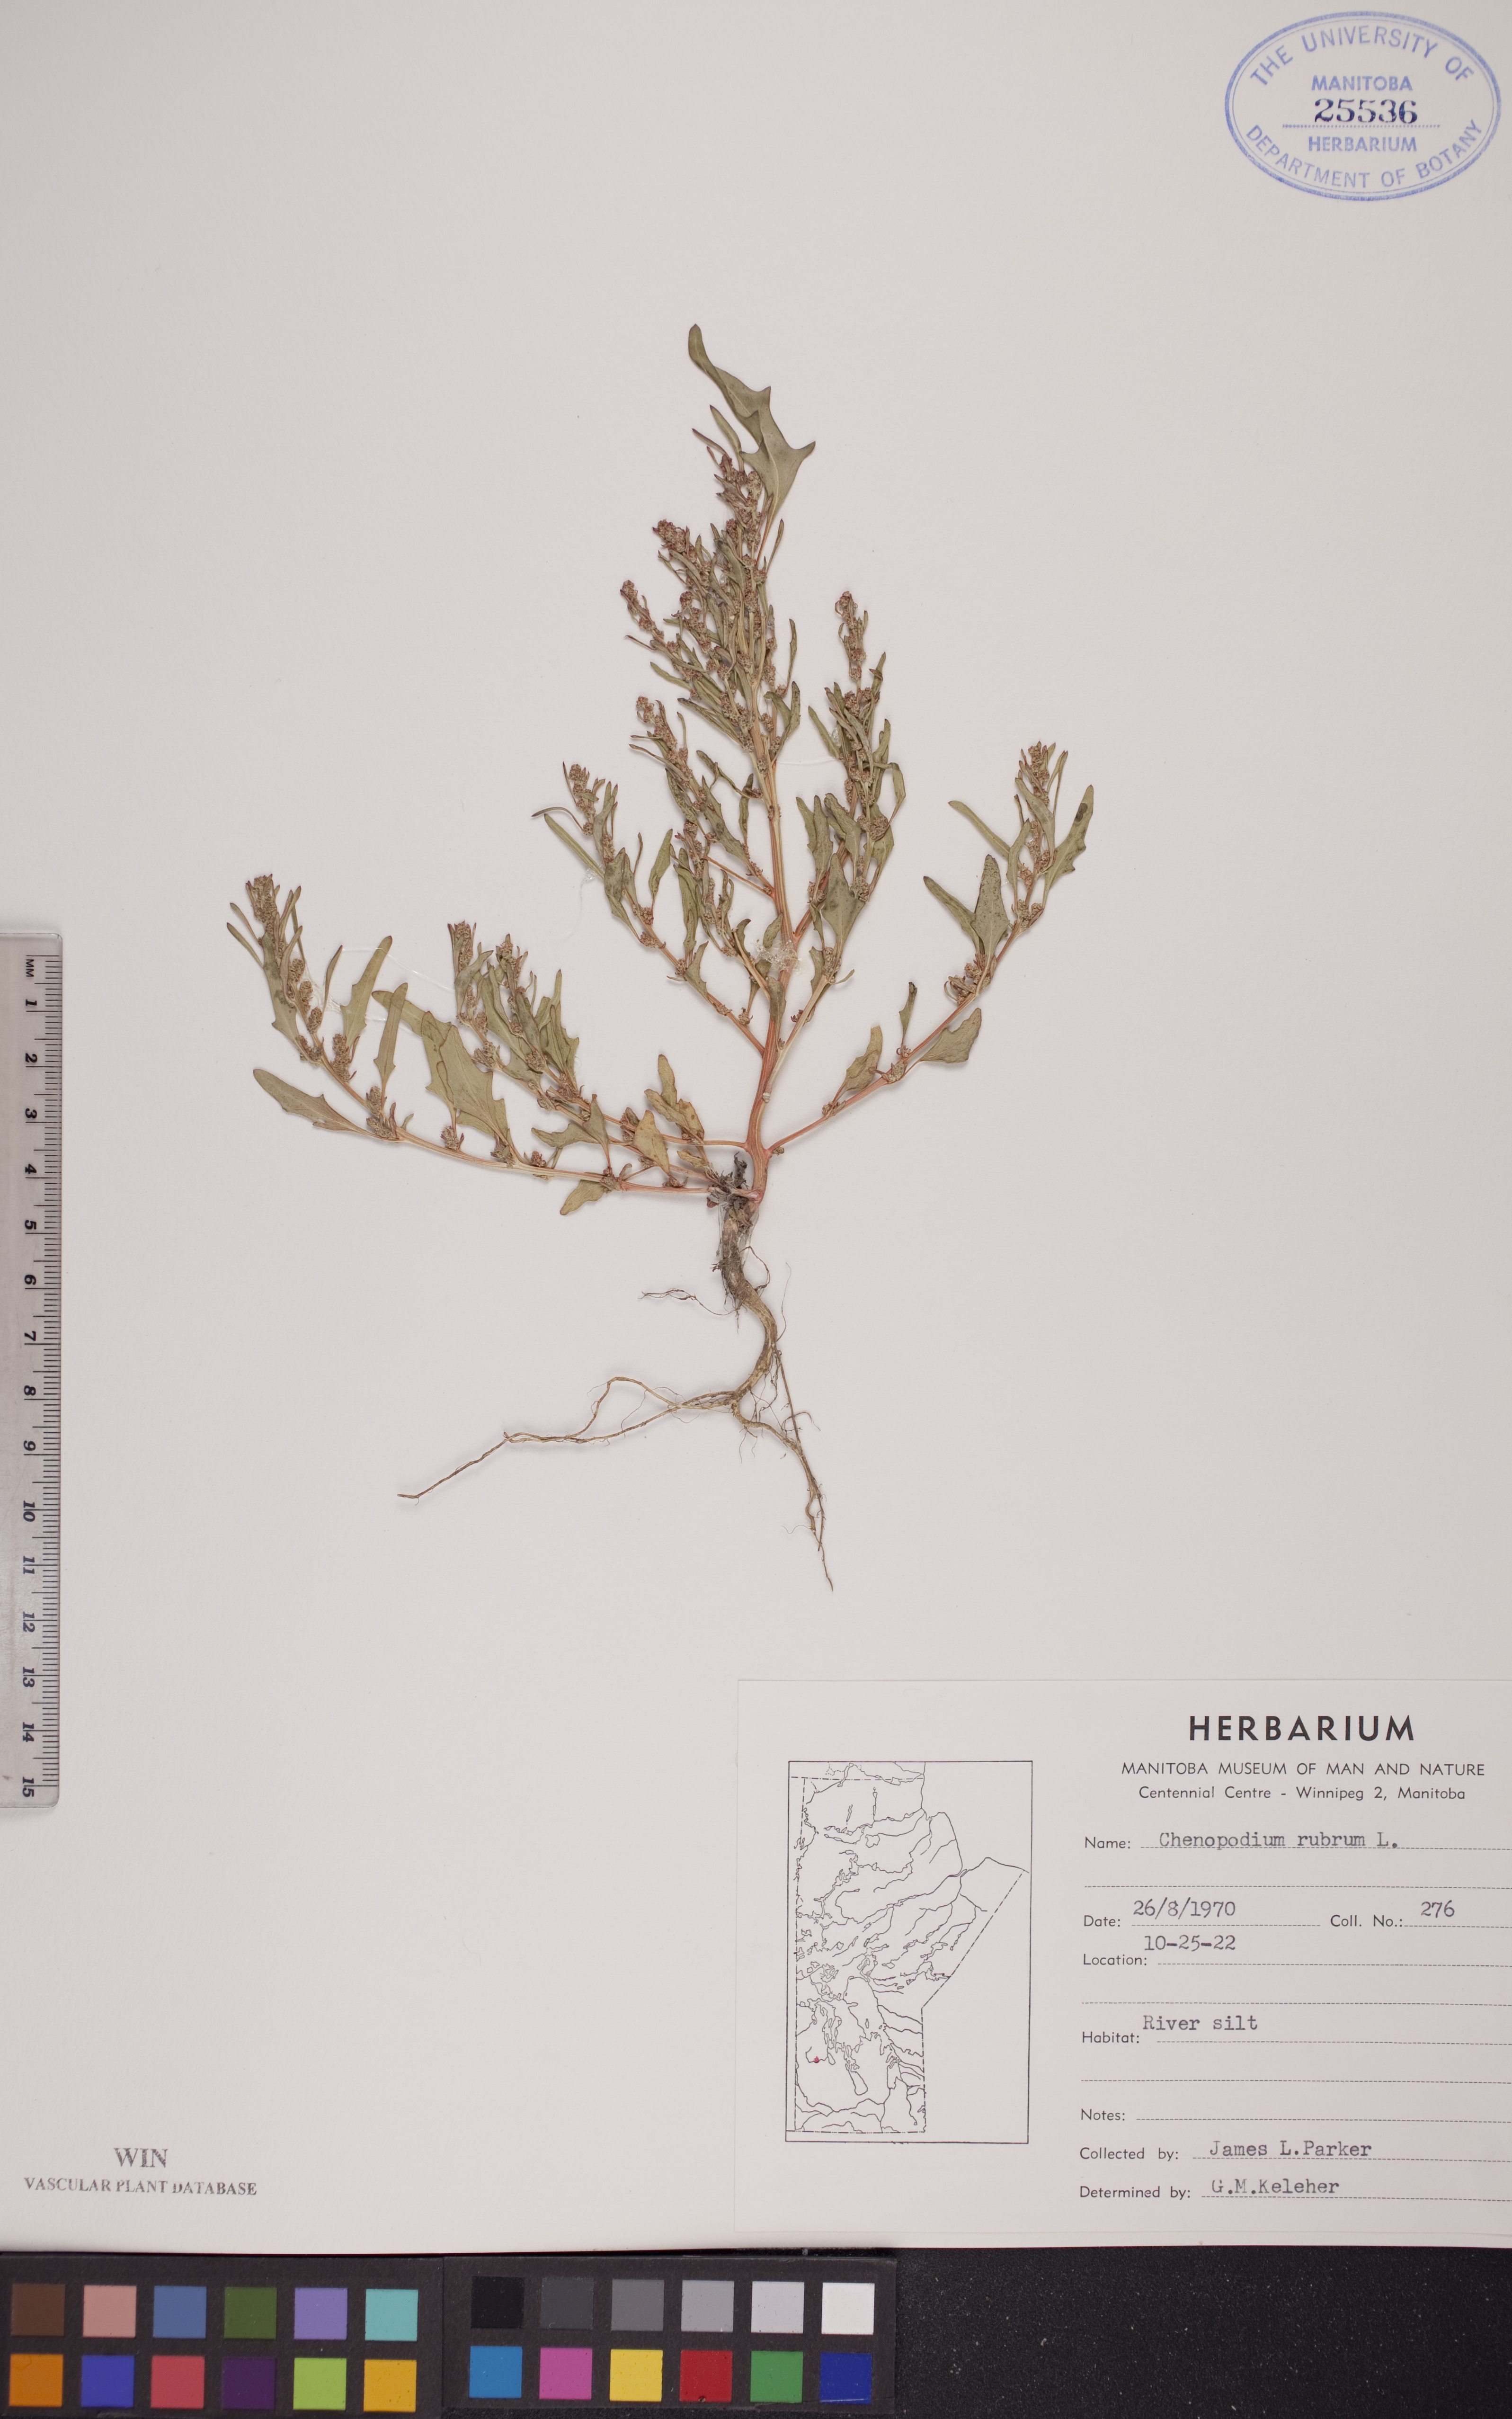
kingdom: Plantae
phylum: Tracheophyta
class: Magnoliopsida
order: Caryophyllales
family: Amaranthaceae
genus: Oxybasis
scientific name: Oxybasis rubra
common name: Red goosefoot
